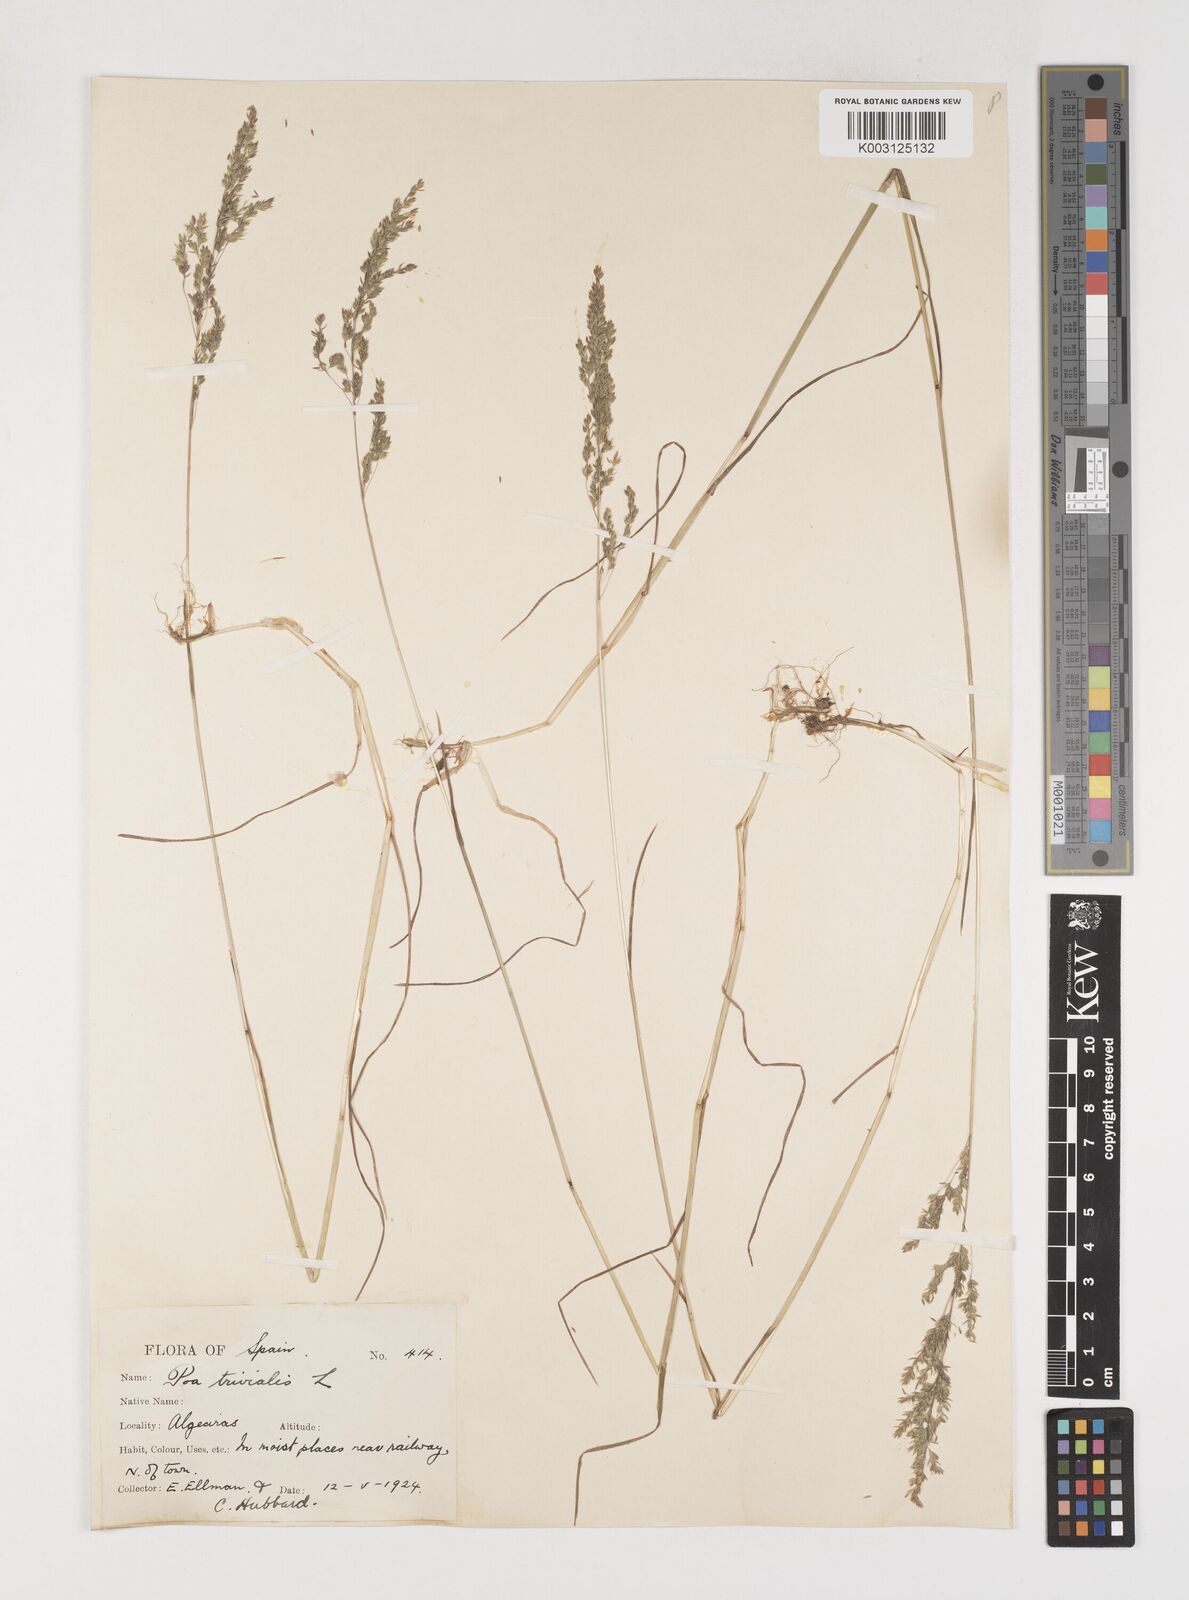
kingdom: Plantae
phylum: Tracheophyta
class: Liliopsida
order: Poales
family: Poaceae
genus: Poa
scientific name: Poa trivialis
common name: Rough bluegrass
